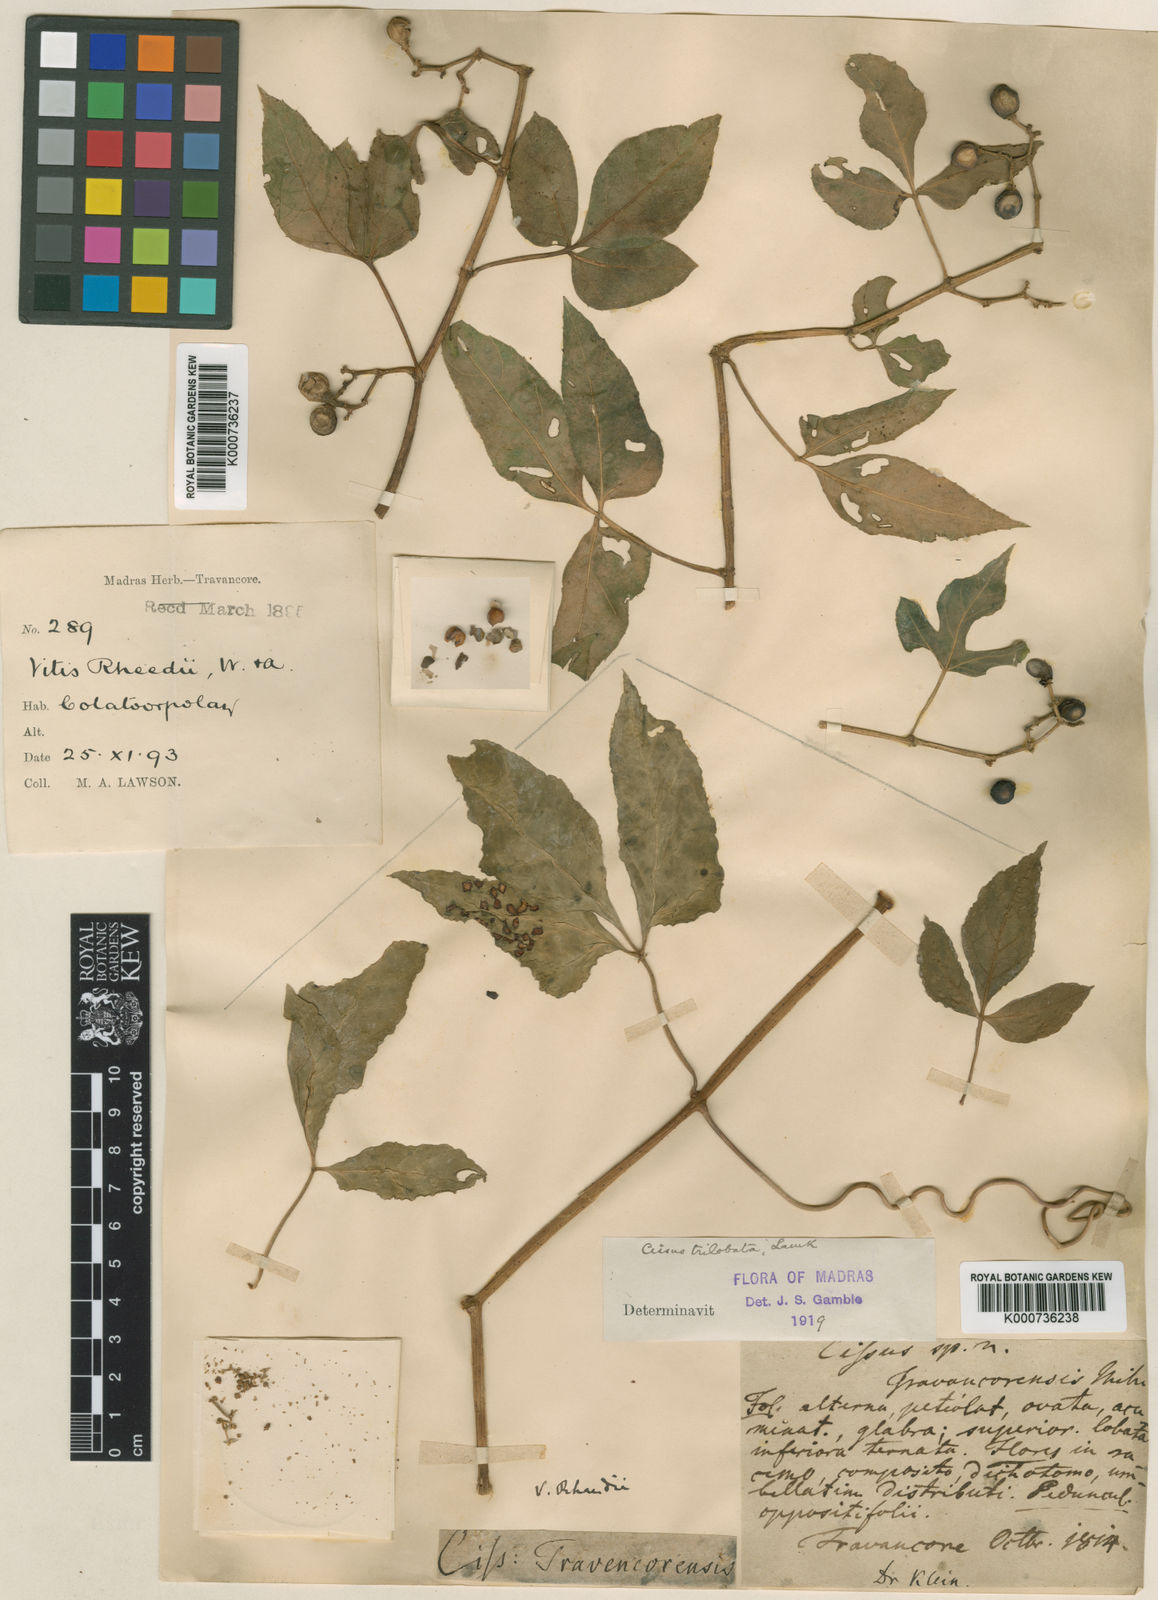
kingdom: Plantae
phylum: Tracheophyta
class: Magnoliopsida
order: Vitales
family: Vitaceae
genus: Cissus
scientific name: Cissus trilobata
